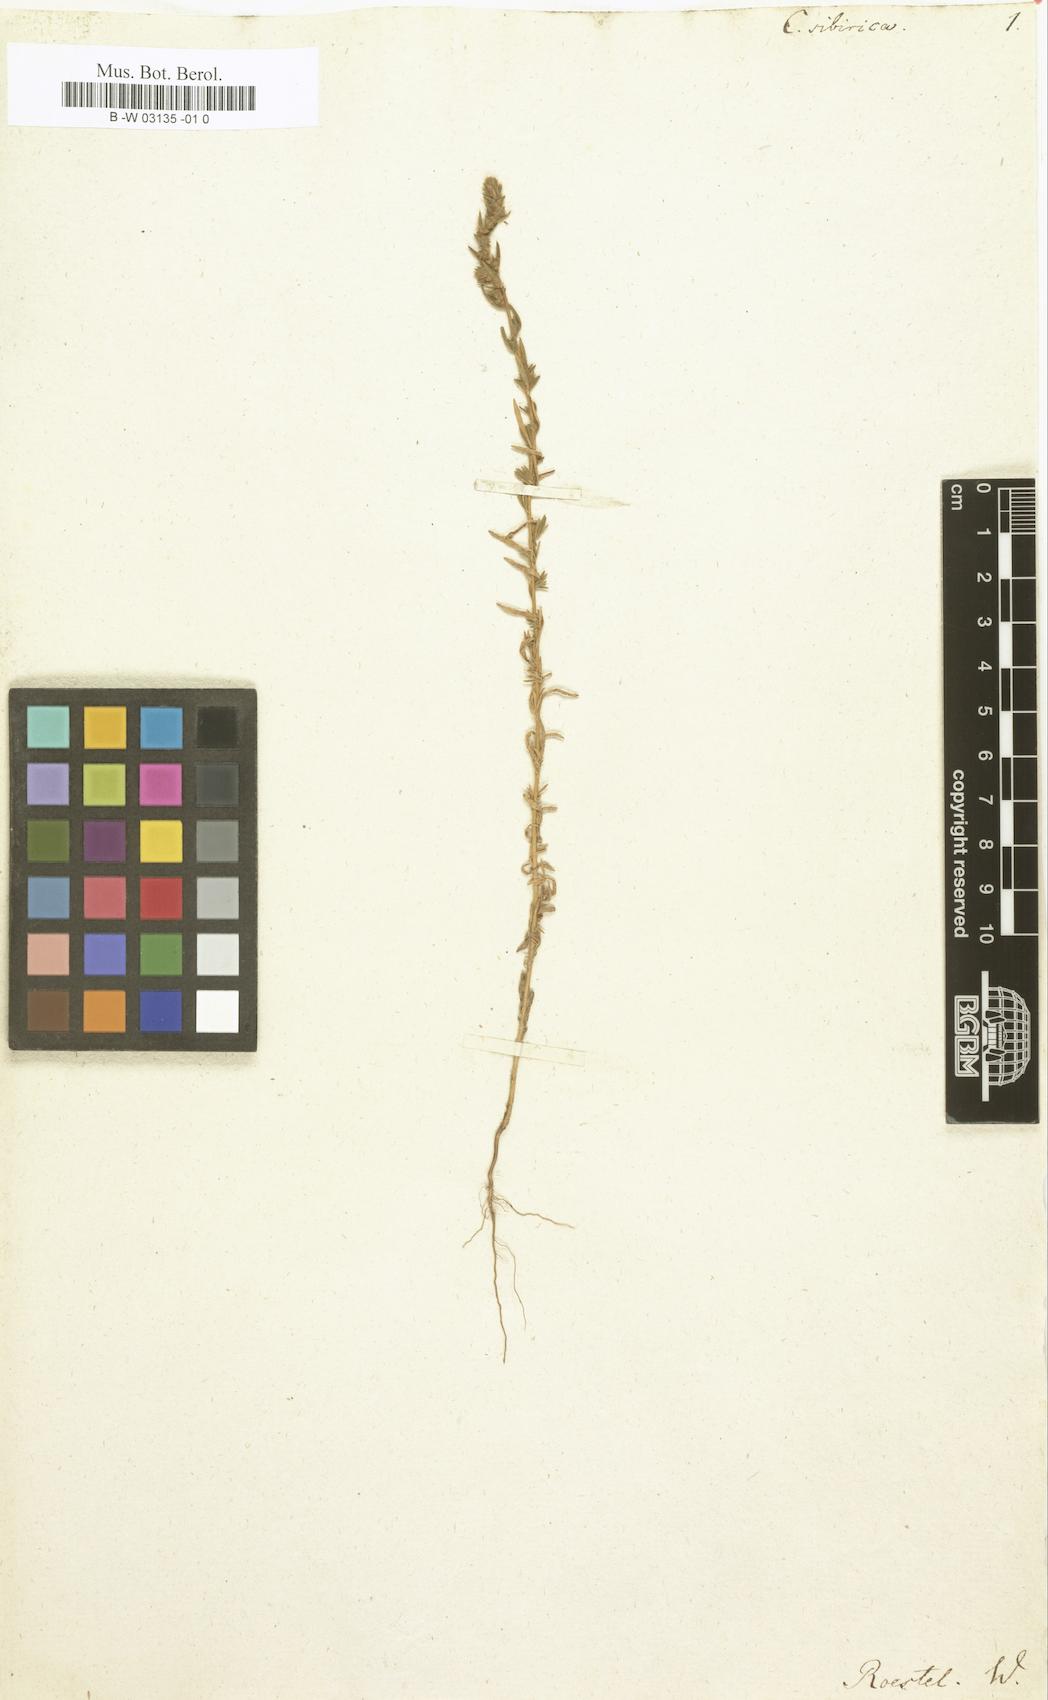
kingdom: Plantae
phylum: Tracheophyta
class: Magnoliopsida
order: Caryophyllales
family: Amaranthaceae
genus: Camphorosma
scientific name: Camphorosma
